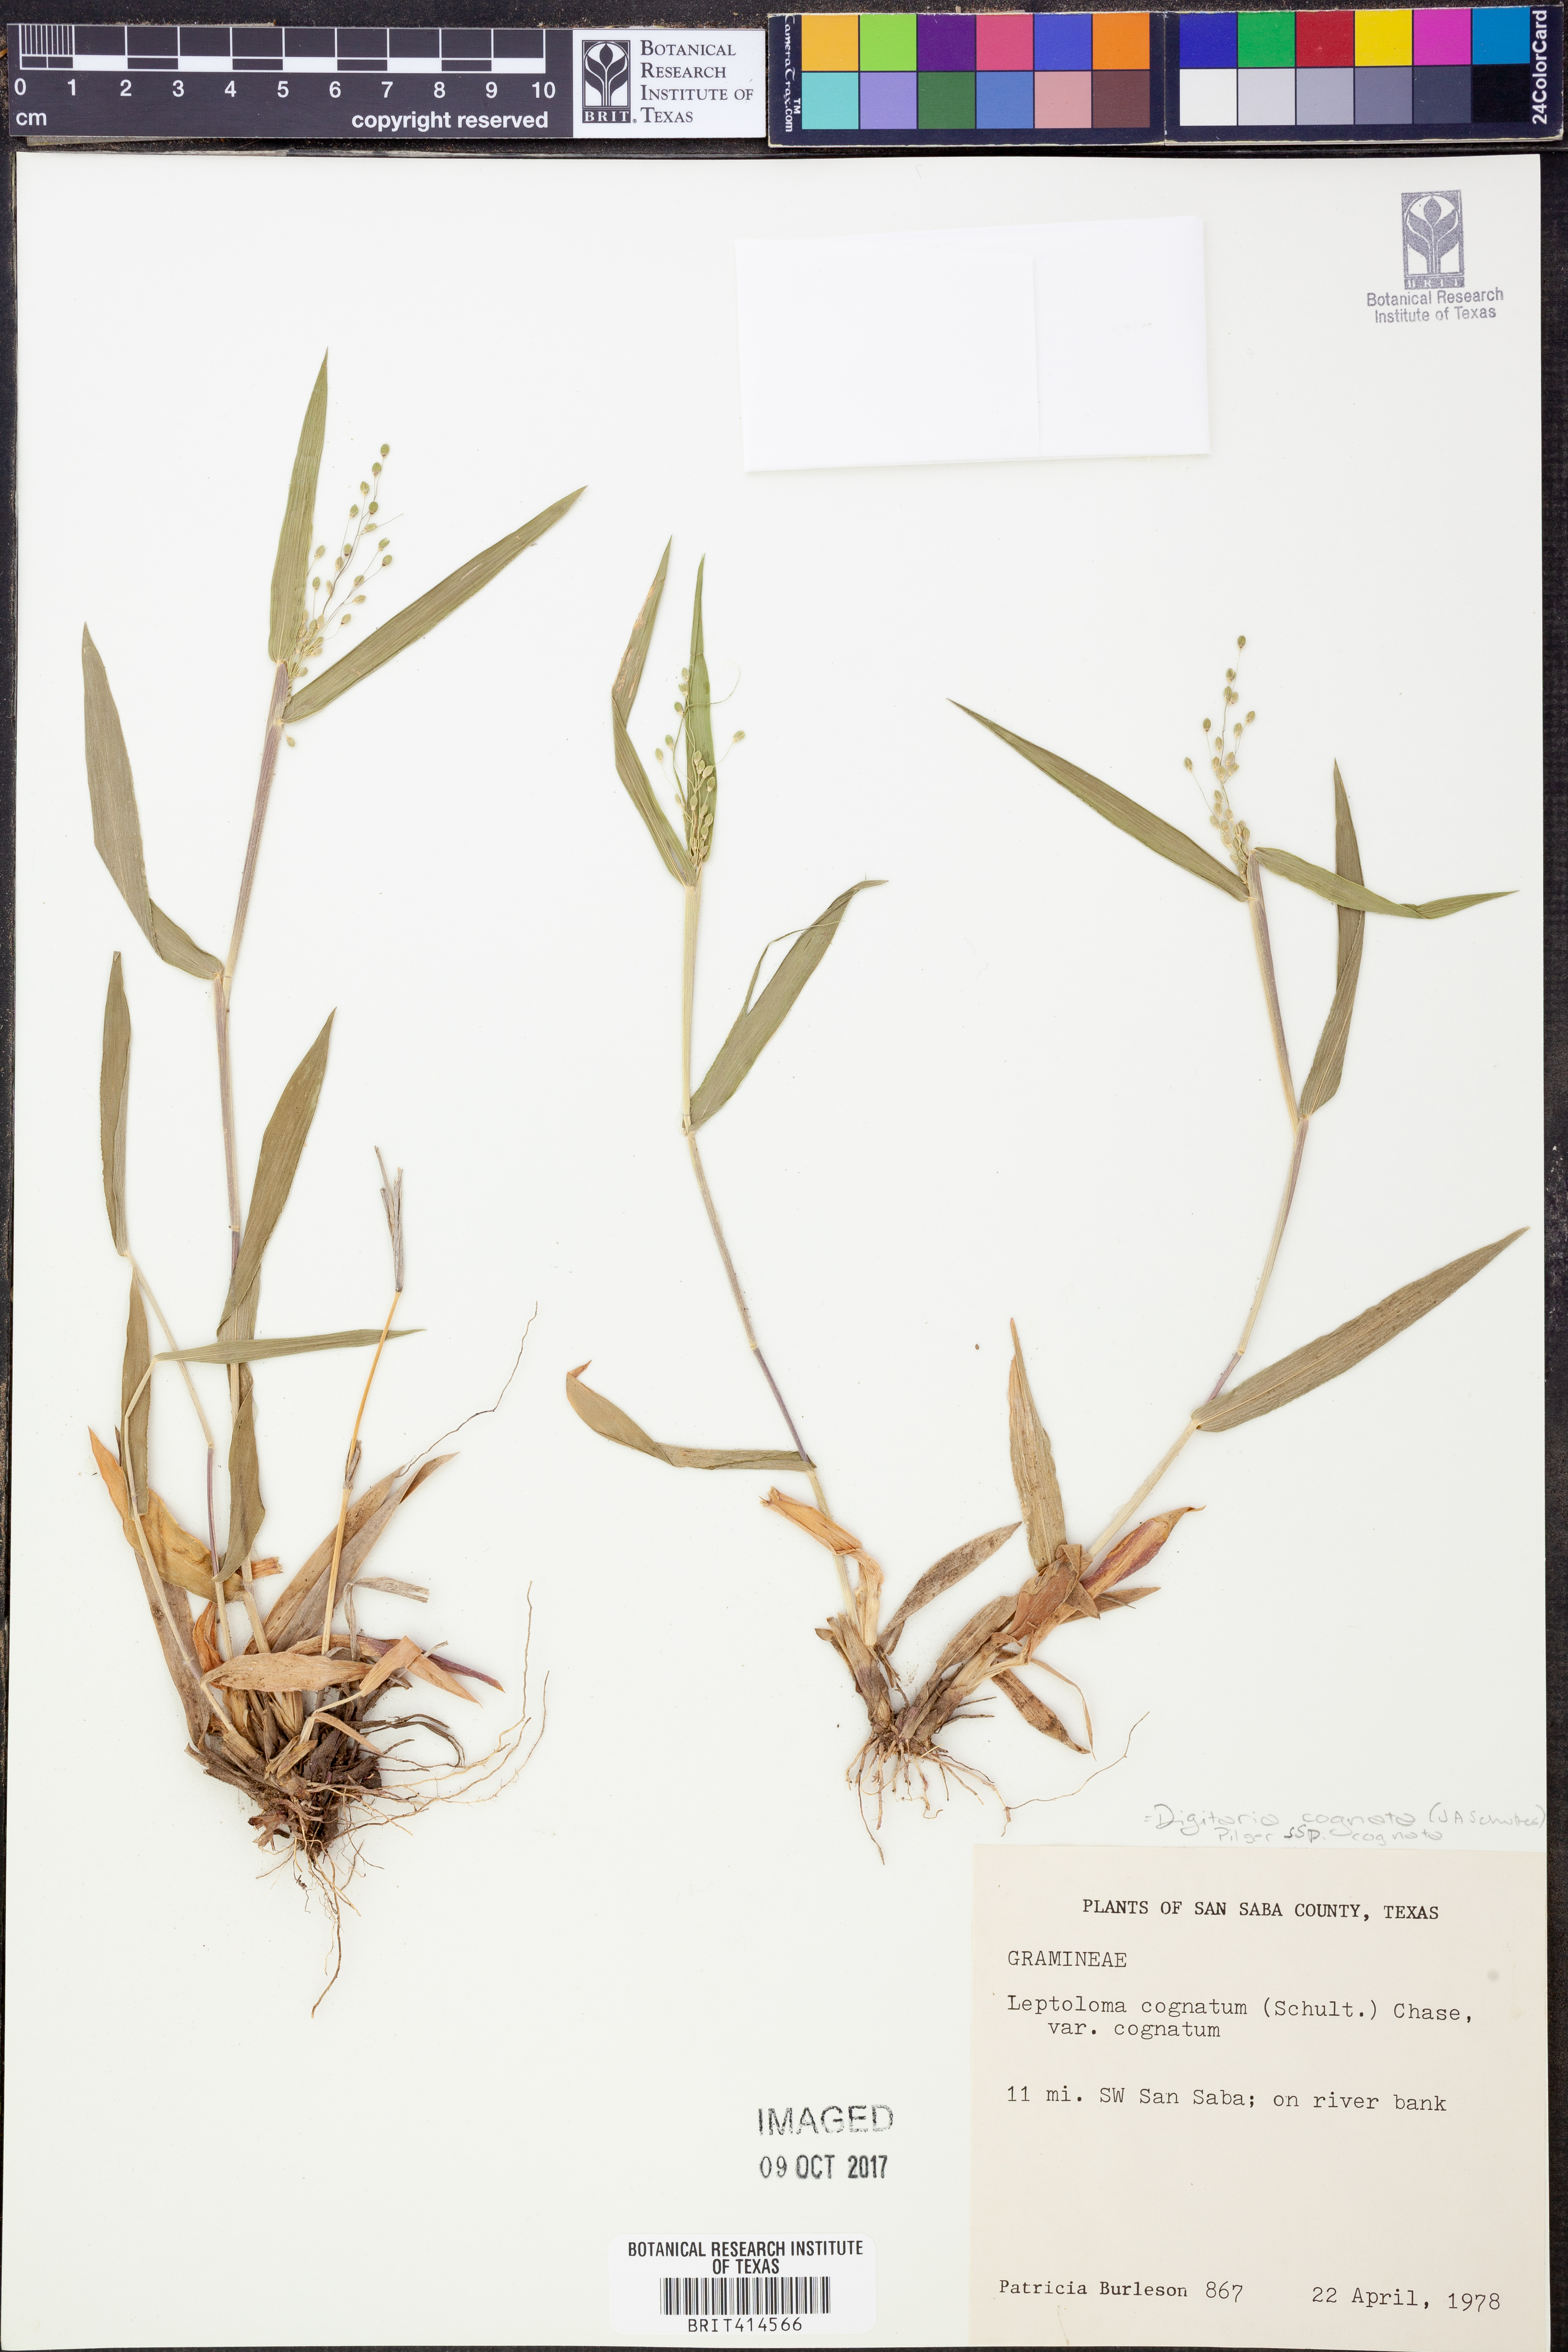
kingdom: Plantae
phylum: Tracheophyta
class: Liliopsida
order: Poales
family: Poaceae
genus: Digitaria
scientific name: Digitaria cognata
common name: Fall witchgrass
